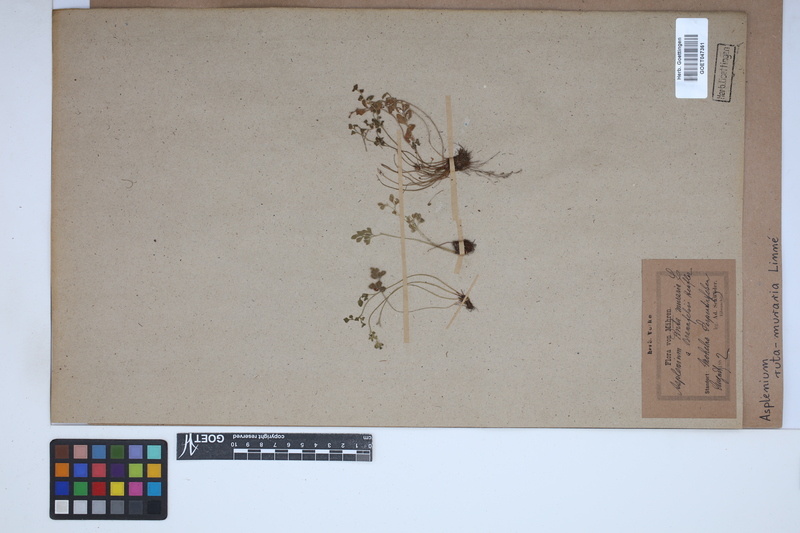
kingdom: Plantae
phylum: Tracheophyta
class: Polypodiopsida
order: Polypodiales
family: Aspleniaceae
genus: Asplenium
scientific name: Asplenium ruta-muraria
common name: Wall-rue
